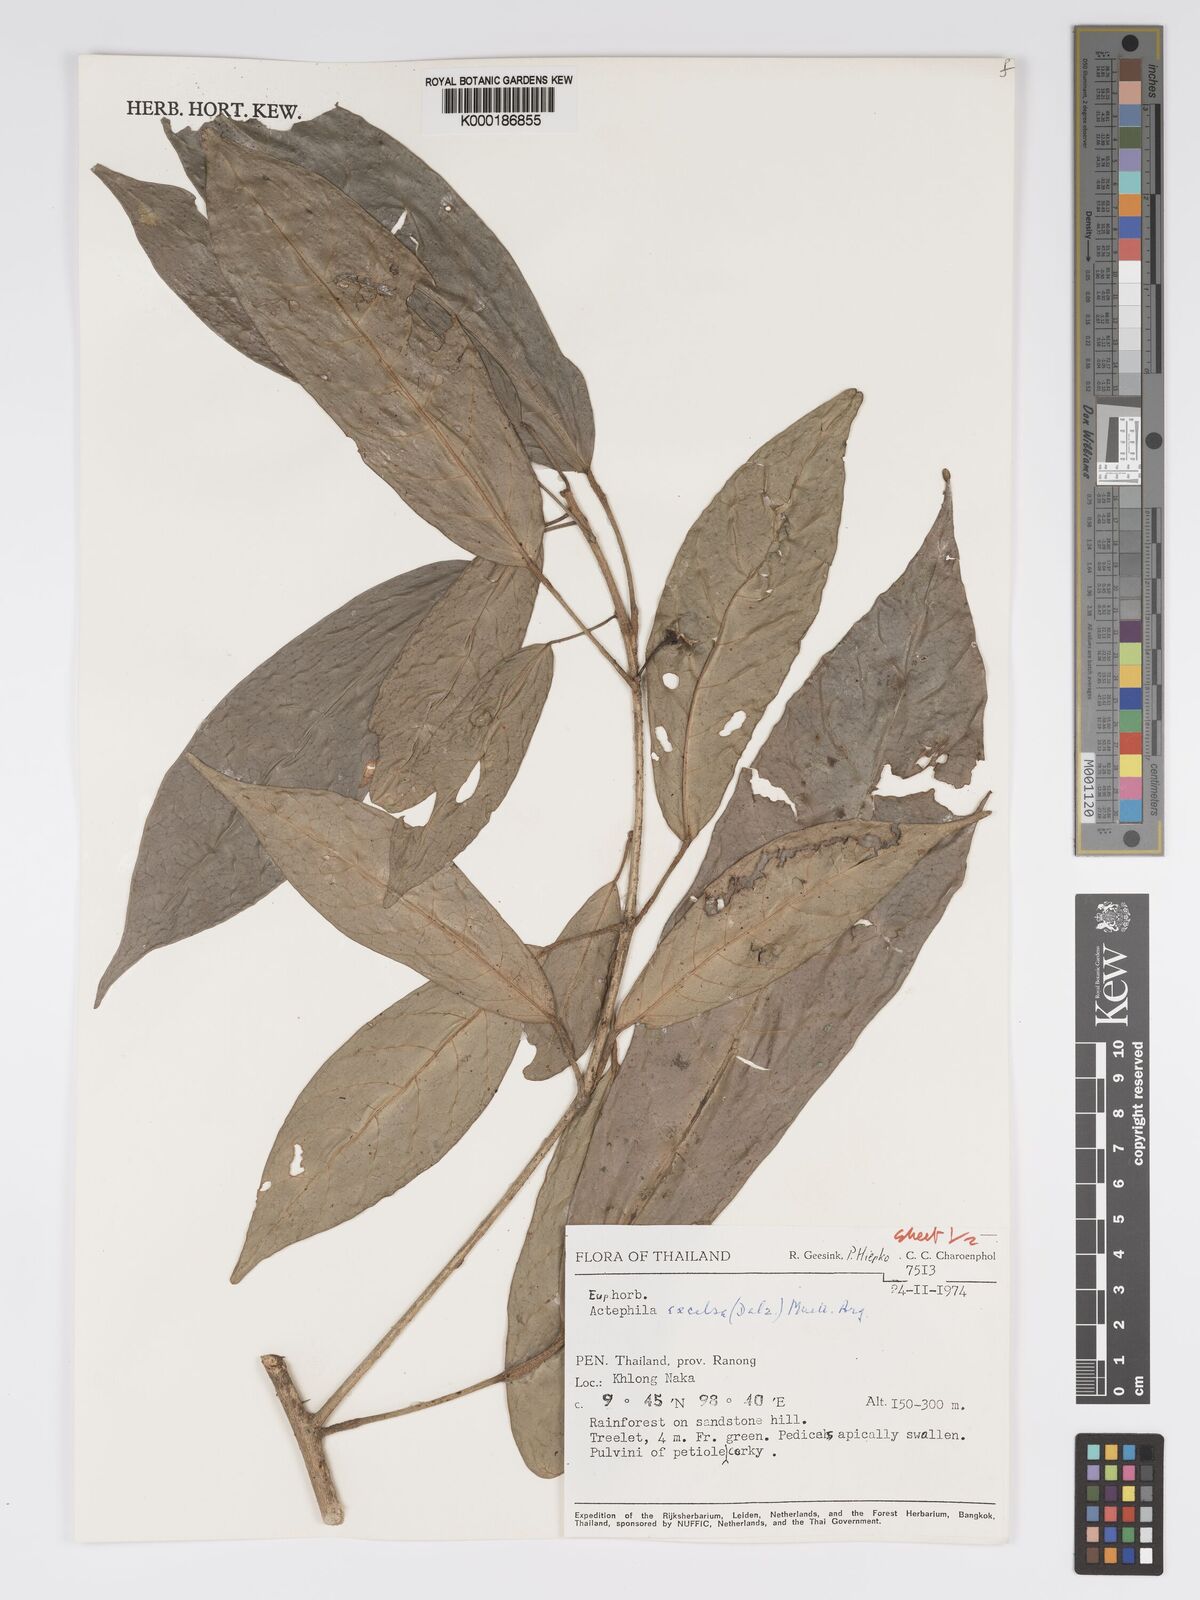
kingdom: Plantae
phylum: Tracheophyta
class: Magnoliopsida
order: Malpighiales
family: Phyllanthaceae
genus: Actephila
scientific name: Actephila
